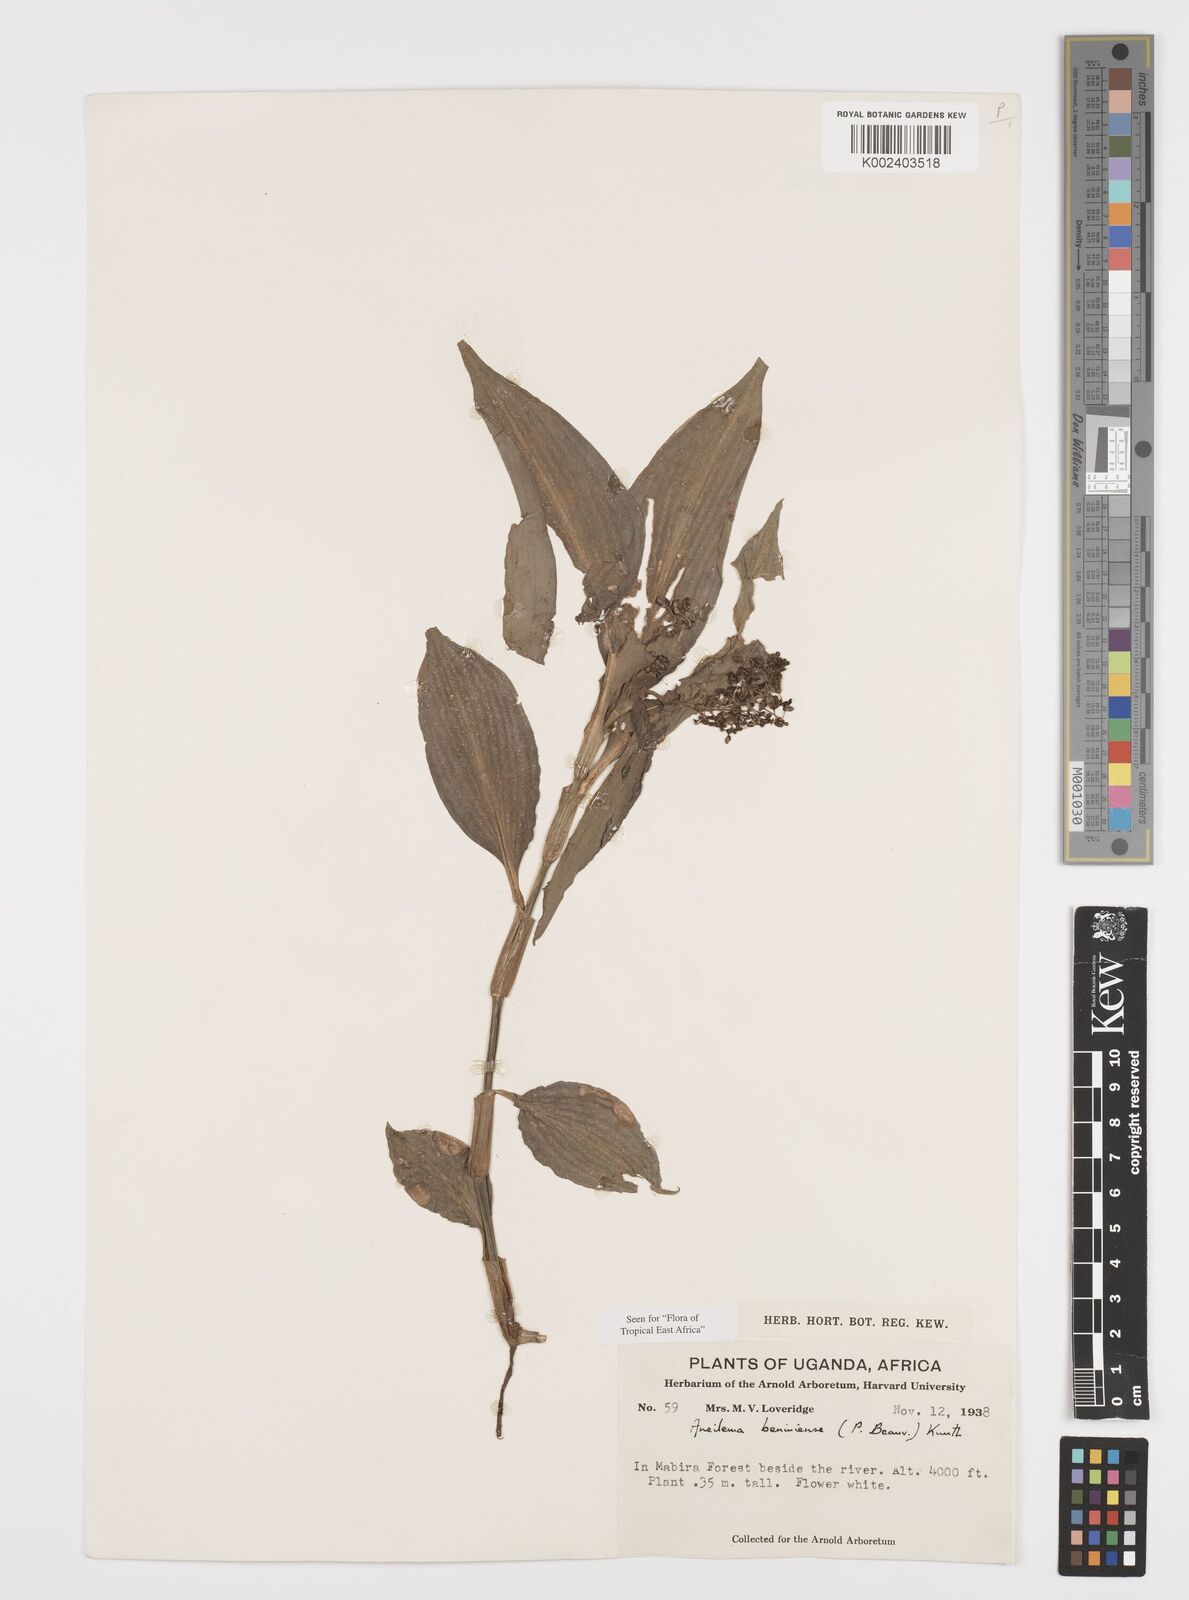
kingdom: Plantae
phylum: Tracheophyta
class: Liliopsida
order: Commelinales
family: Commelinaceae
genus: Aneilema
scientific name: Aneilema beniniense
